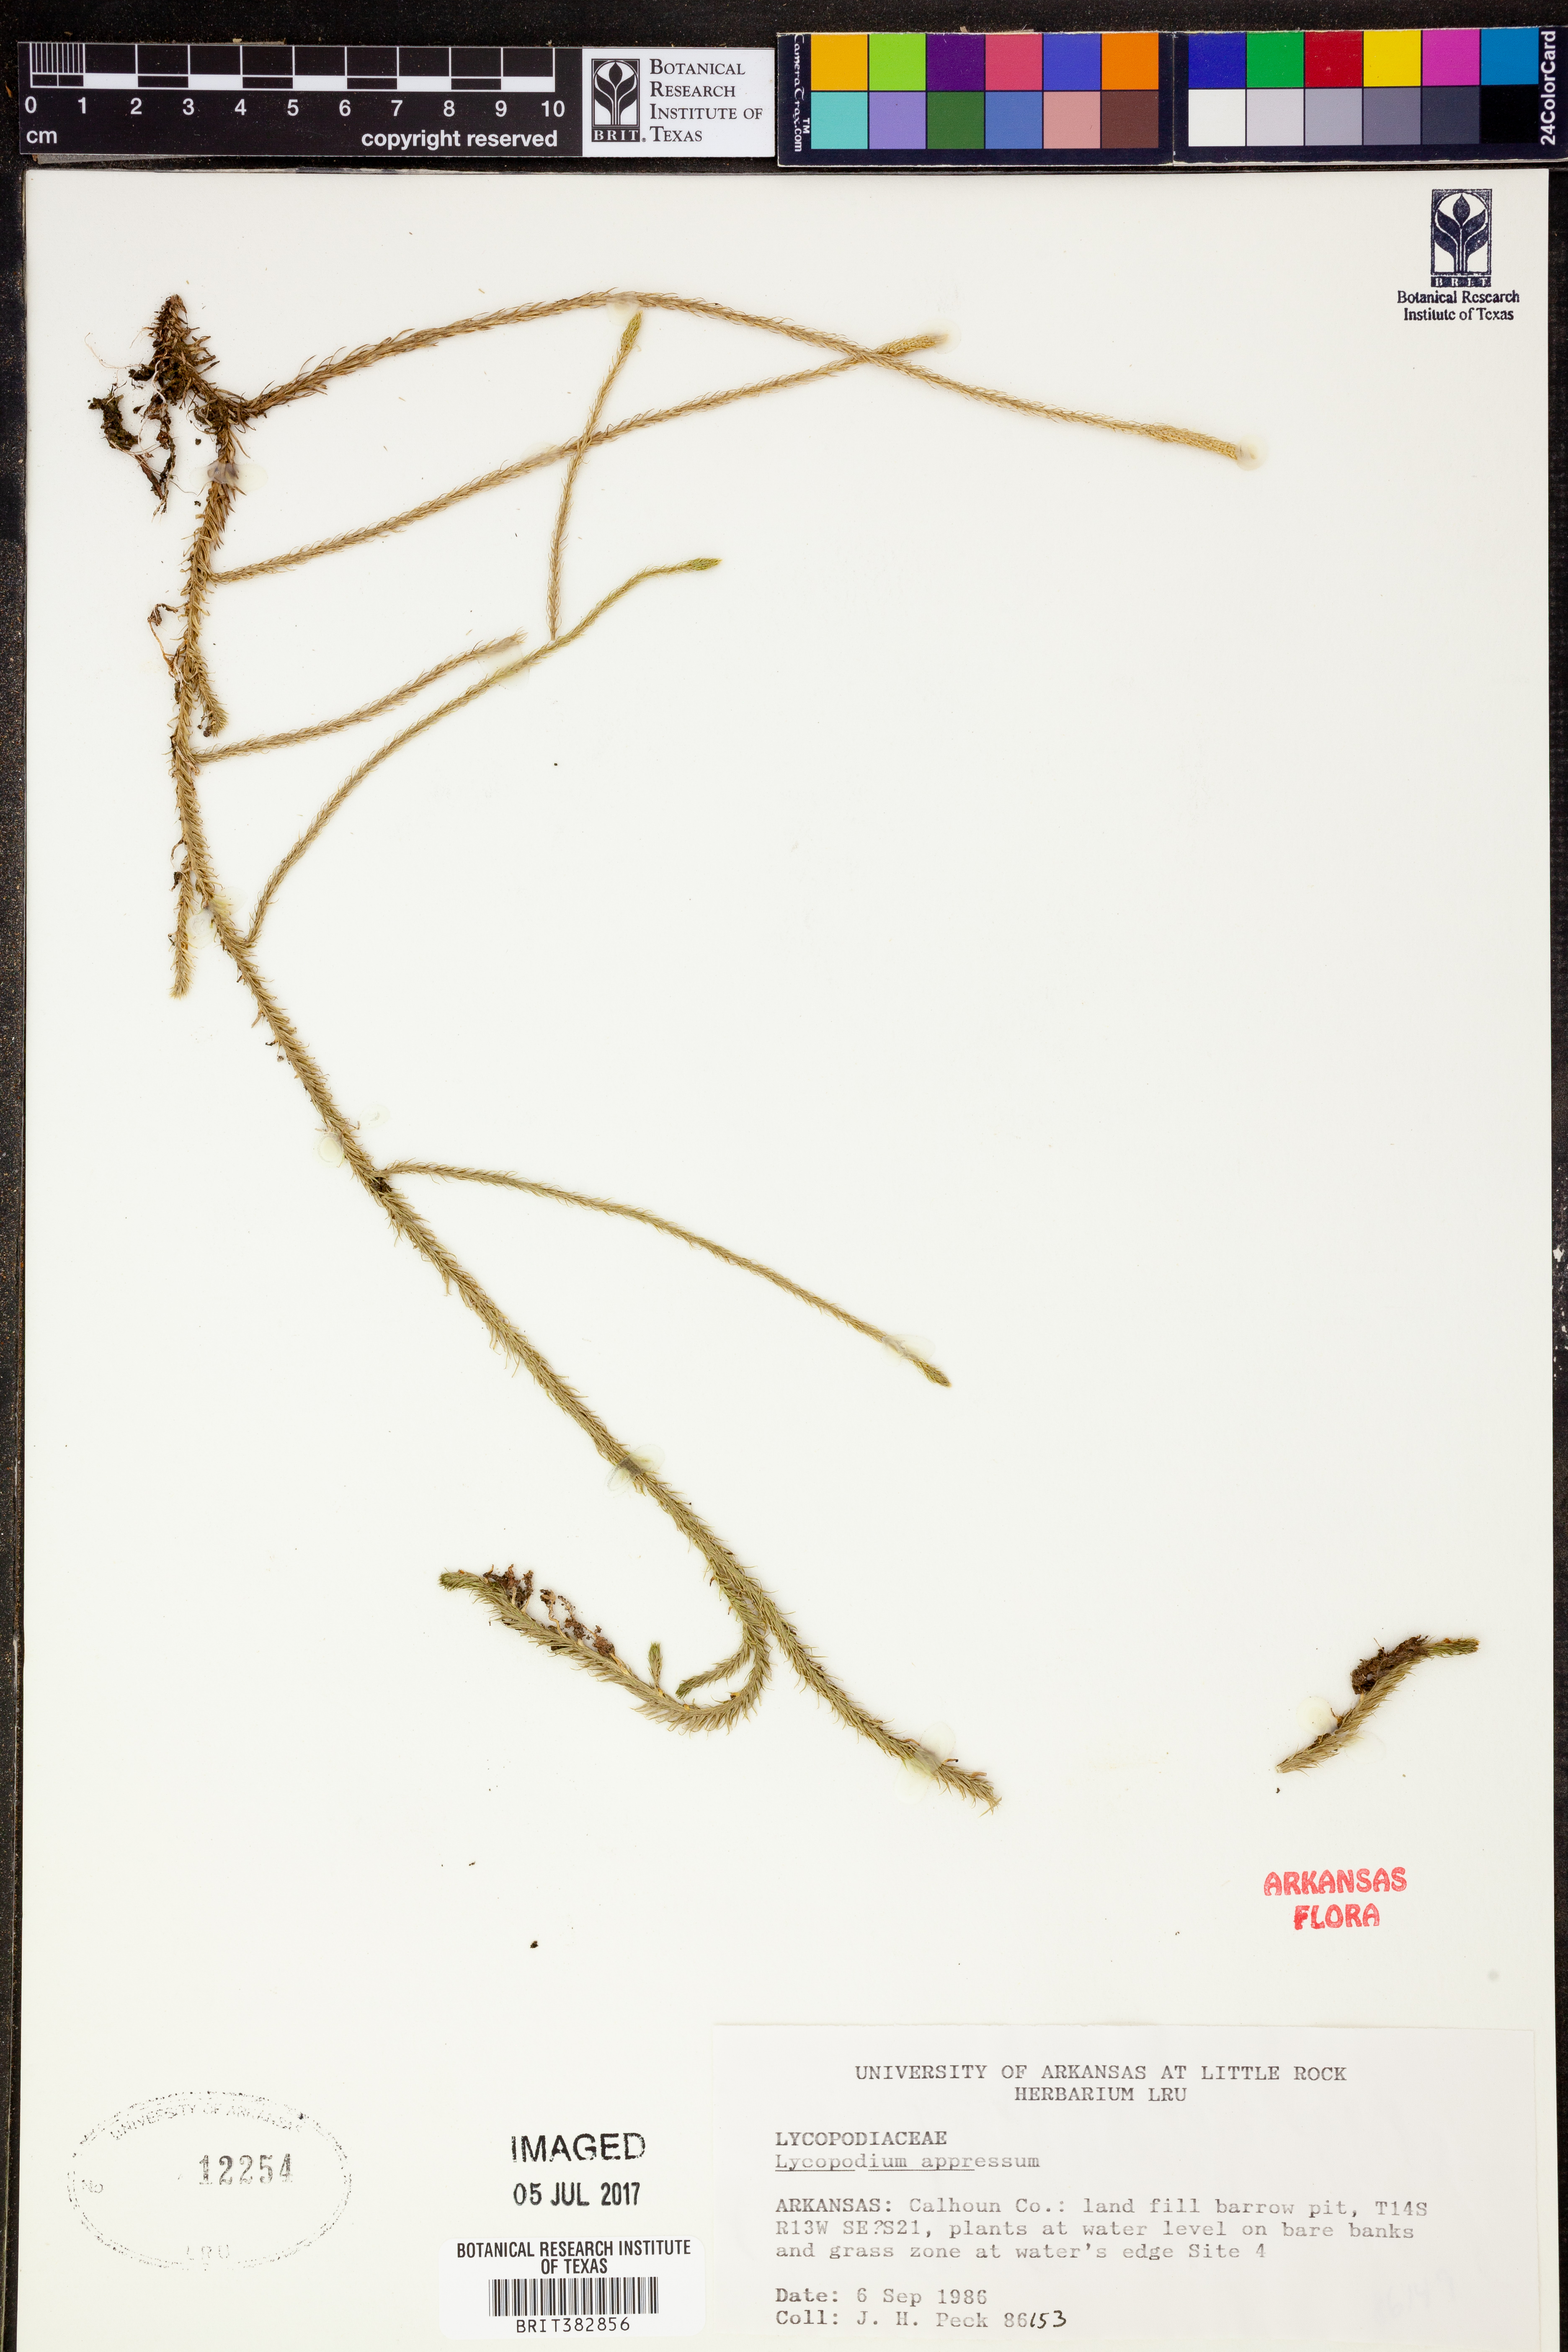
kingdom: Plantae
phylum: Tracheophyta
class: Lycopodiopsida
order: Lycopodiales
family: Lycopodiaceae
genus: Lycopodiella
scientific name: Lycopodiella appressa
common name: Appressed bog clubmoss
